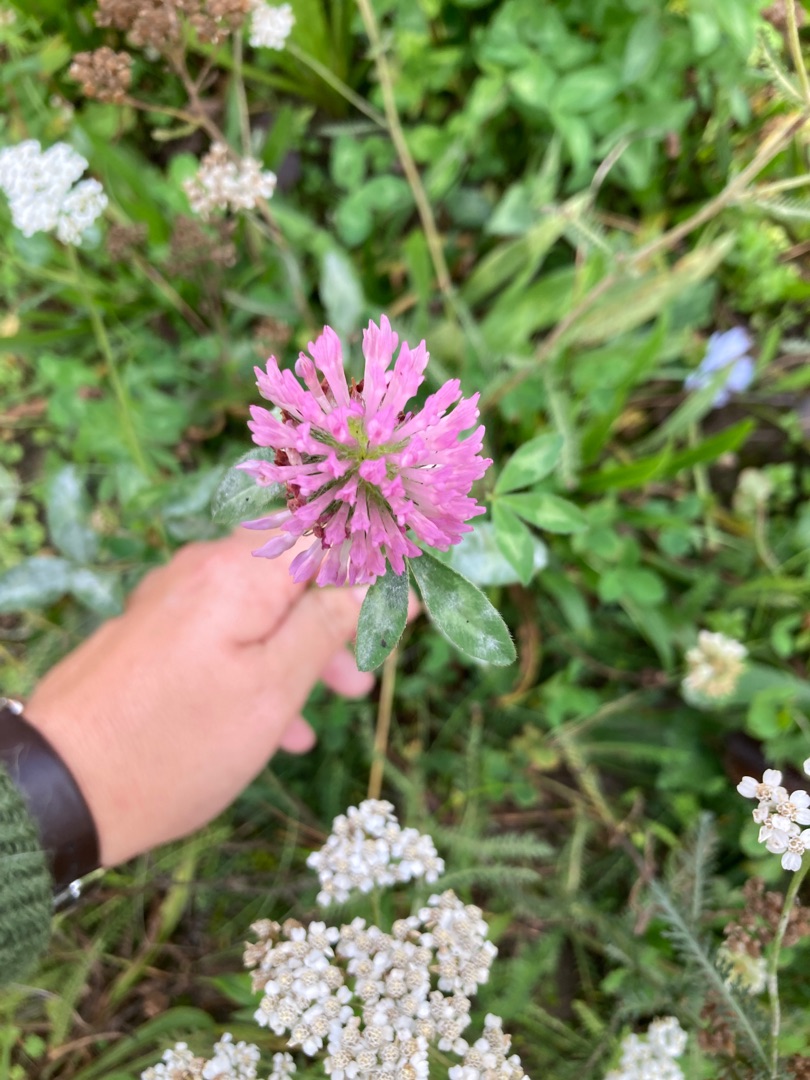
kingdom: Plantae
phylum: Tracheophyta
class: Magnoliopsida
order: Fabales
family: Fabaceae
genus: Trifolium
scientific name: Trifolium pratense
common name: Rød-kløver
